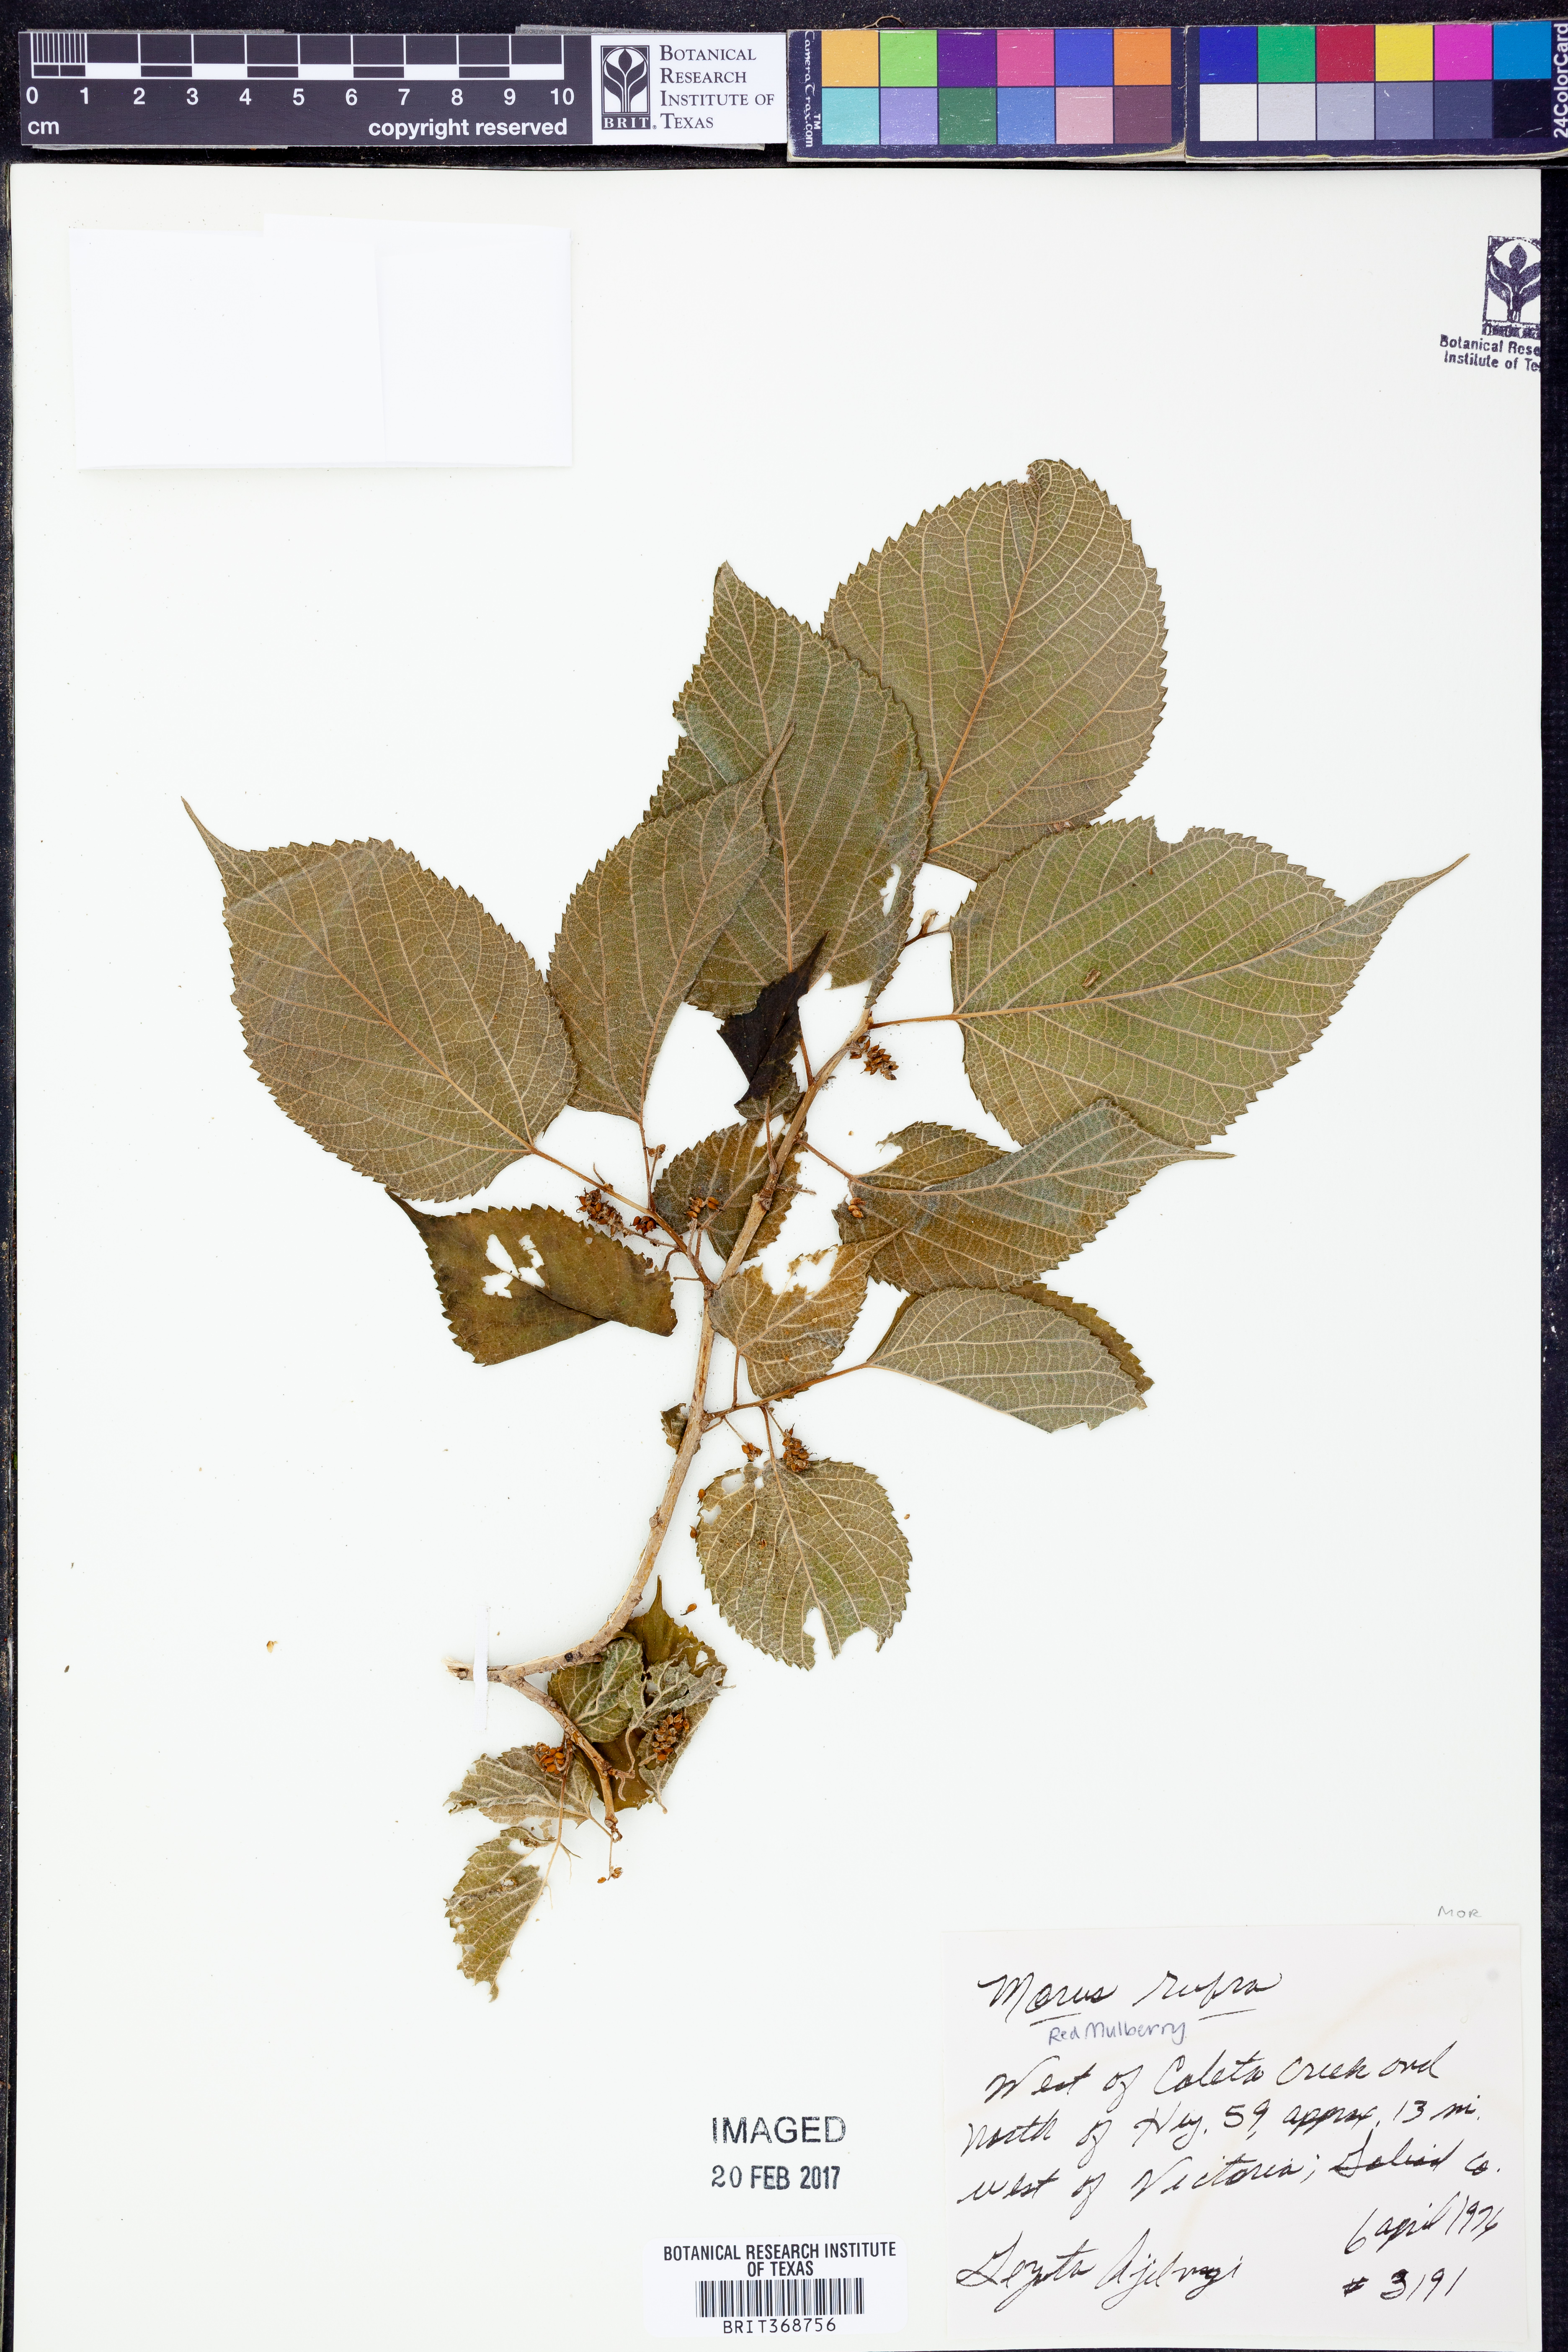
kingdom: Plantae
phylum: Tracheophyta
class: Magnoliopsida
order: Rosales
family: Moraceae
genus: Morus
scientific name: Morus rubra
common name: Red mulberry
